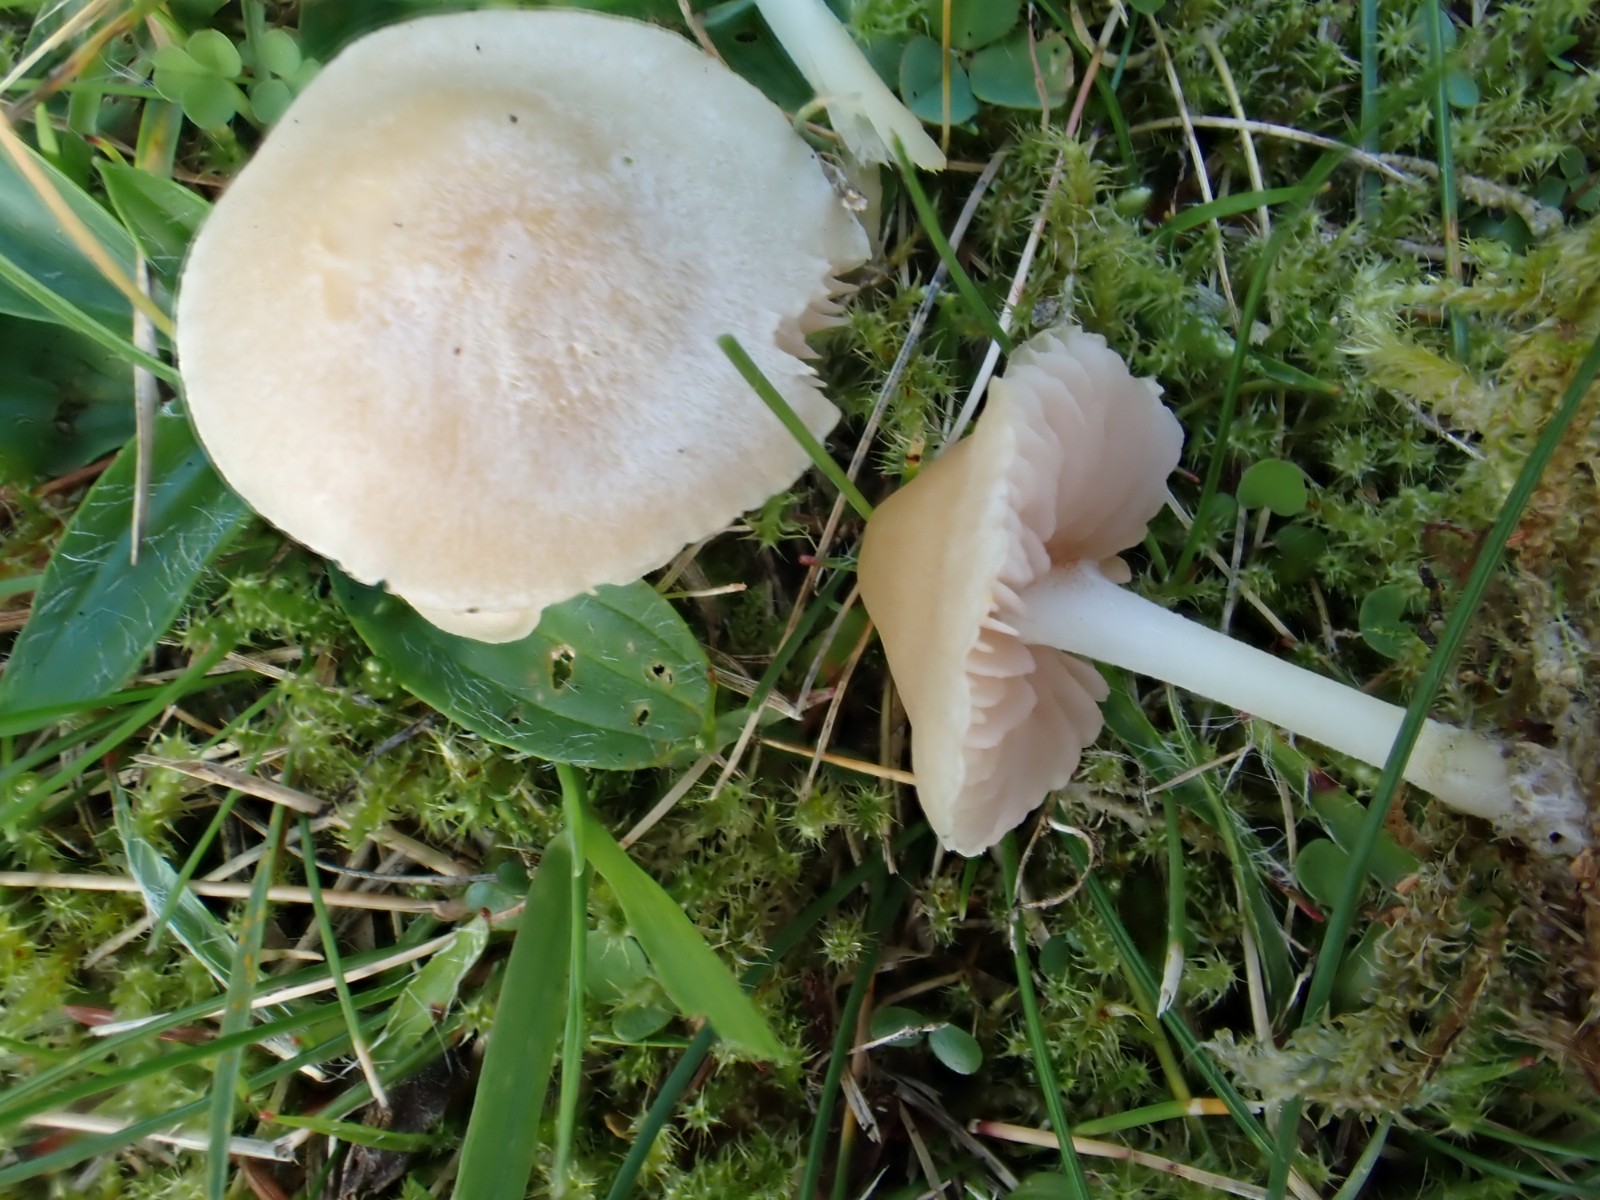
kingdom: Fungi
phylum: Basidiomycota
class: Agaricomycetes
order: Agaricales
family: Entolomataceae
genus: Entoloma
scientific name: Entoloma sericellum
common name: silkehvid rødblad
